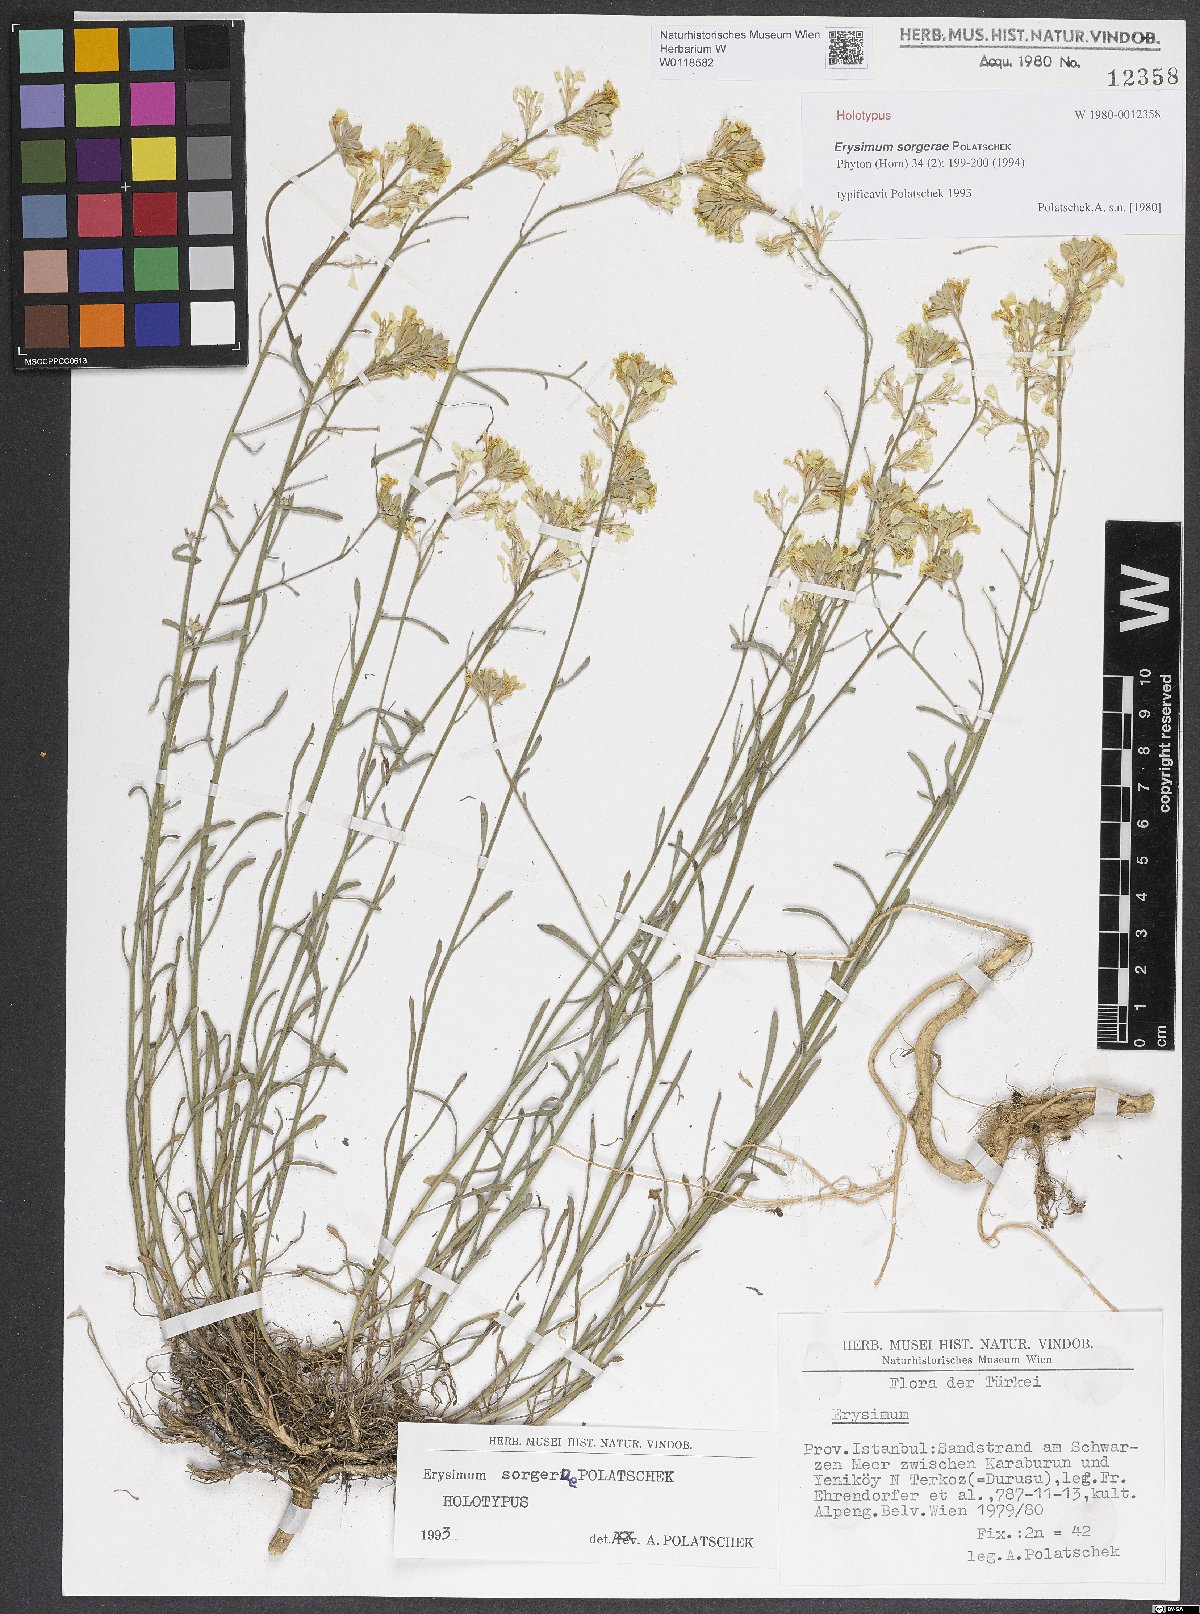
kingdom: Plantae
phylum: Tracheophyta
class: Magnoliopsida
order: Brassicales
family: Brassicaceae
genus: Erysimum
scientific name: Erysimum sorgerae
